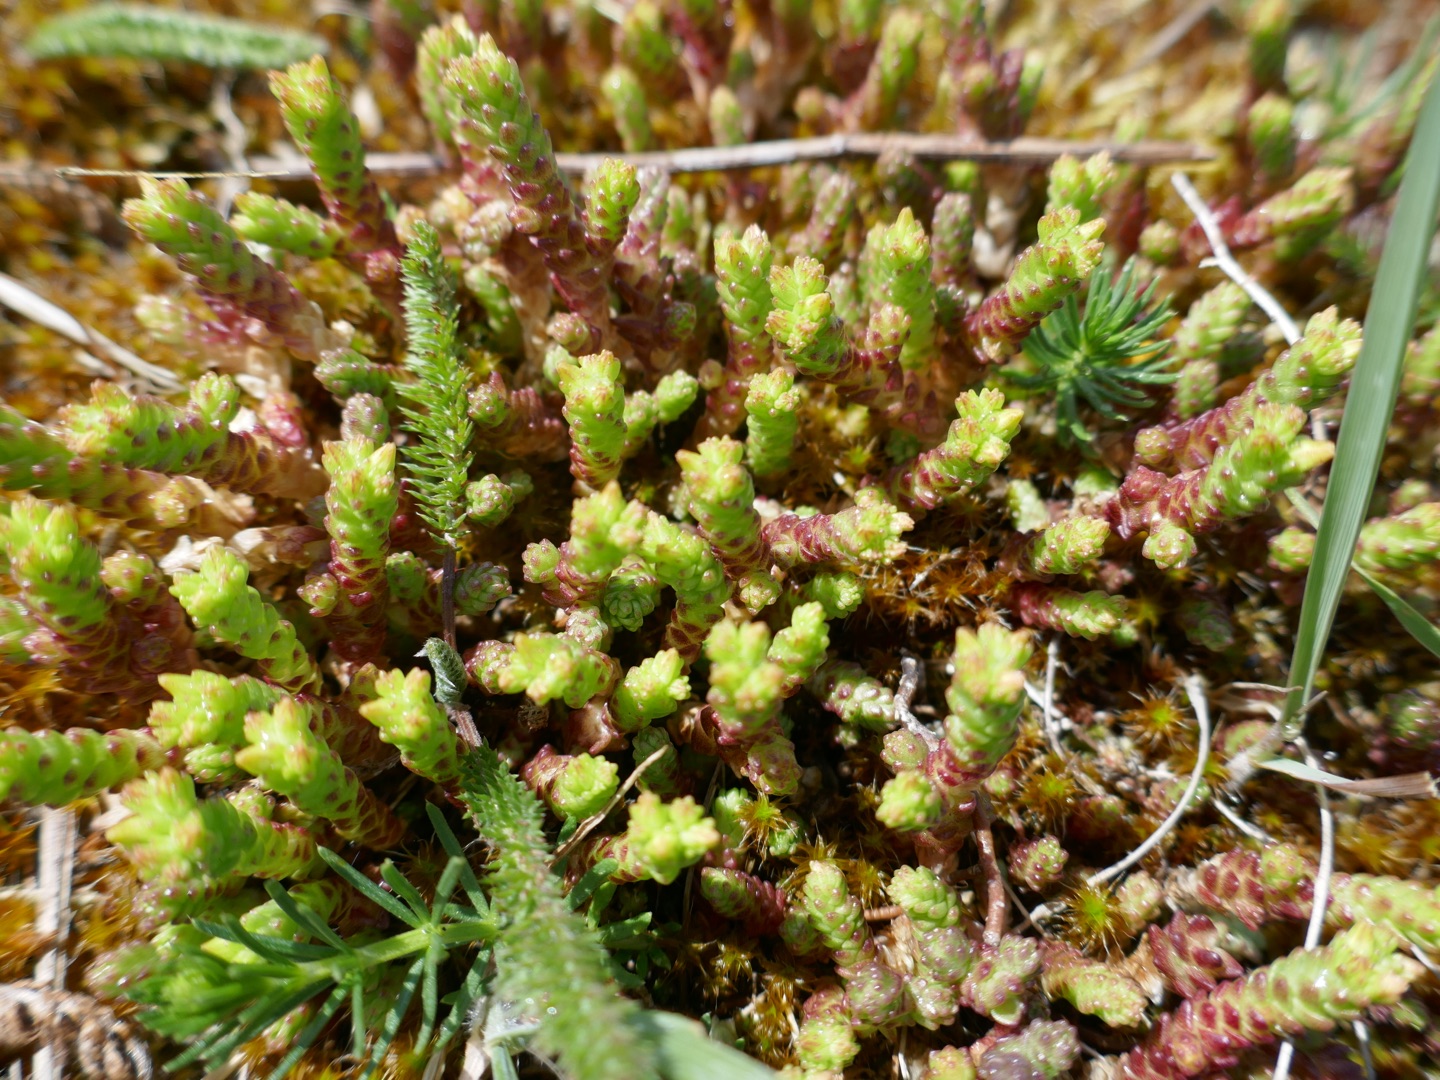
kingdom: Plantae
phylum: Tracheophyta
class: Magnoliopsida
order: Saxifragales
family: Crassulaceae
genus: Sedum
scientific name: Sedum acre
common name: Bidende stenurt
